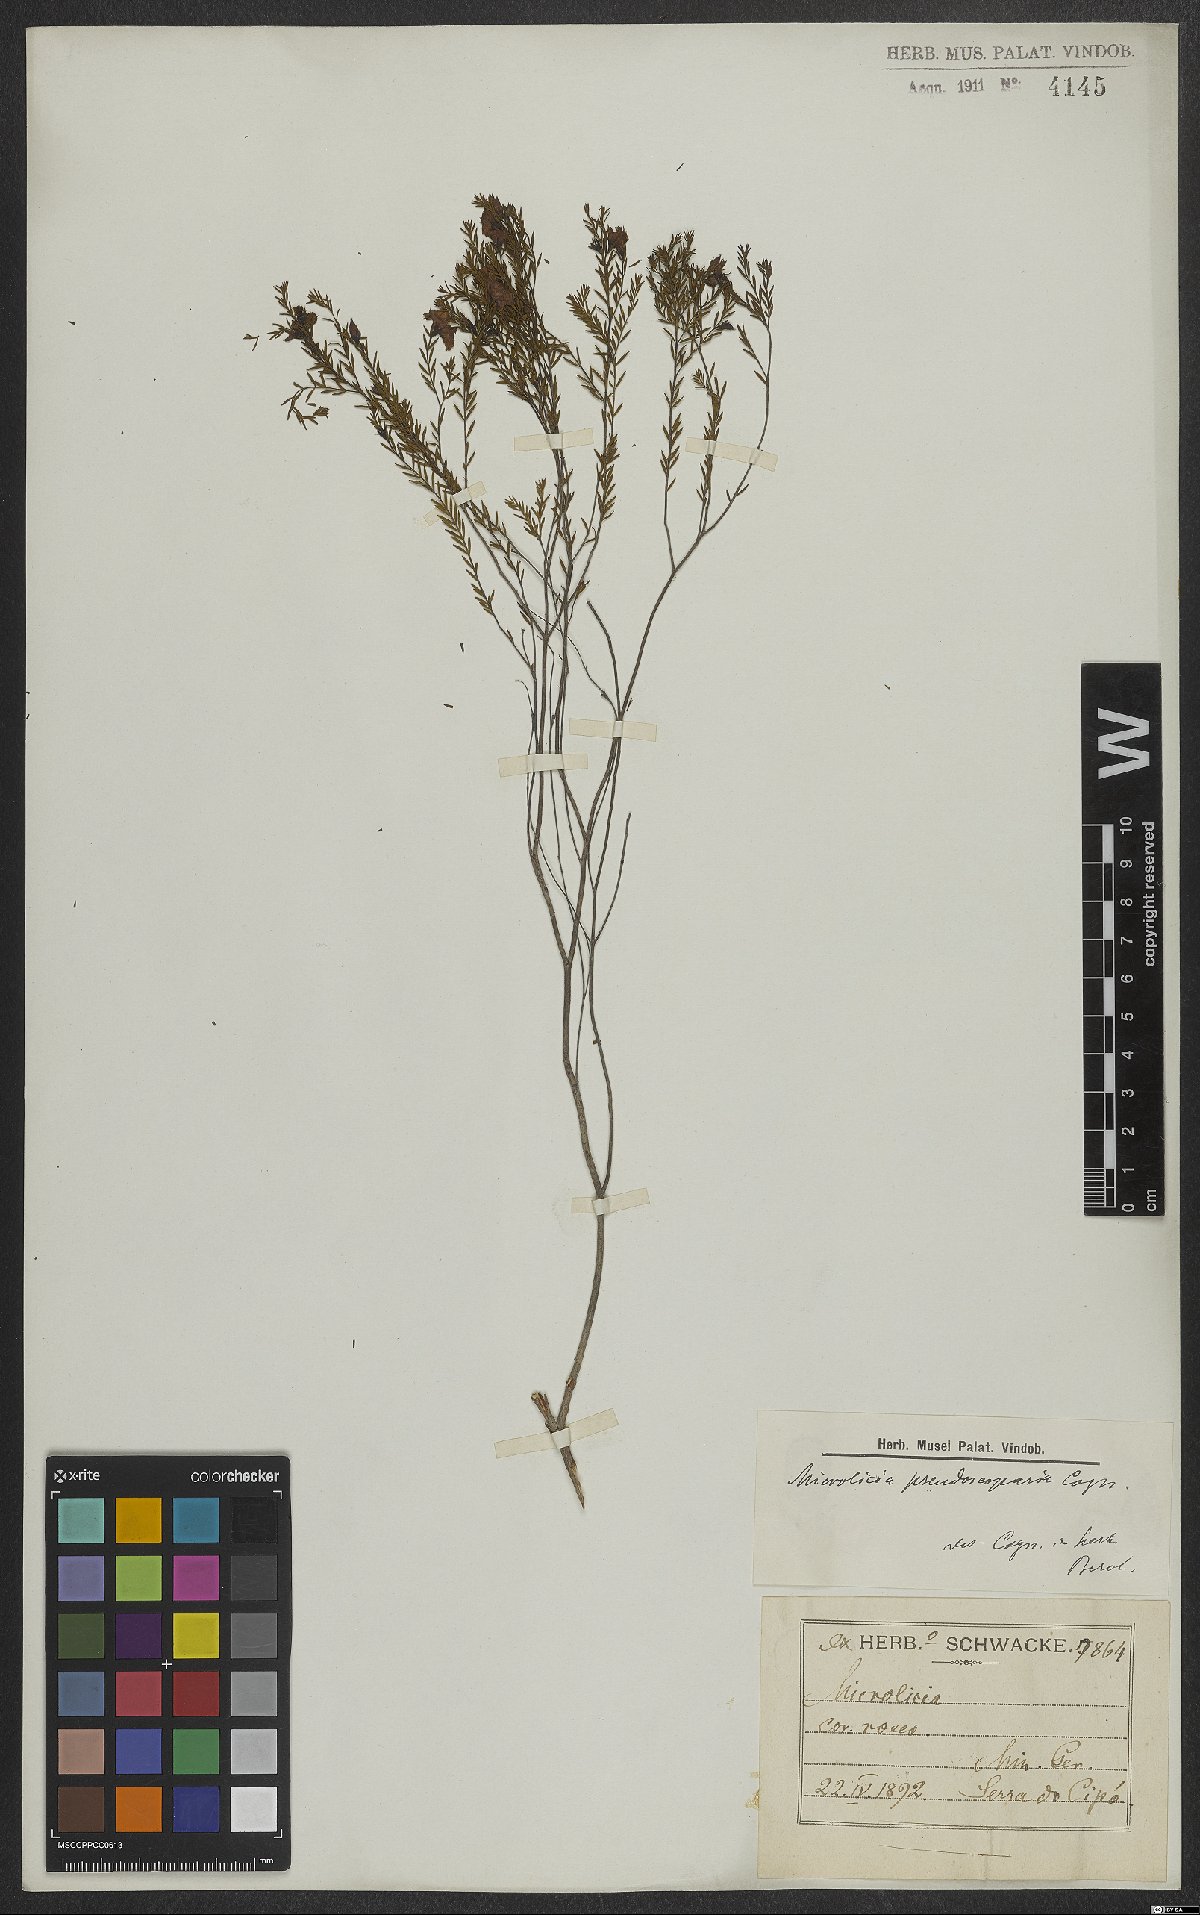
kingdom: Plantae
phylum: Tracheophyta
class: Magnoliopsida
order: Myrtales
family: Melastomataceae
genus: Microlicia
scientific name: Microlicia pseudoscoparia
